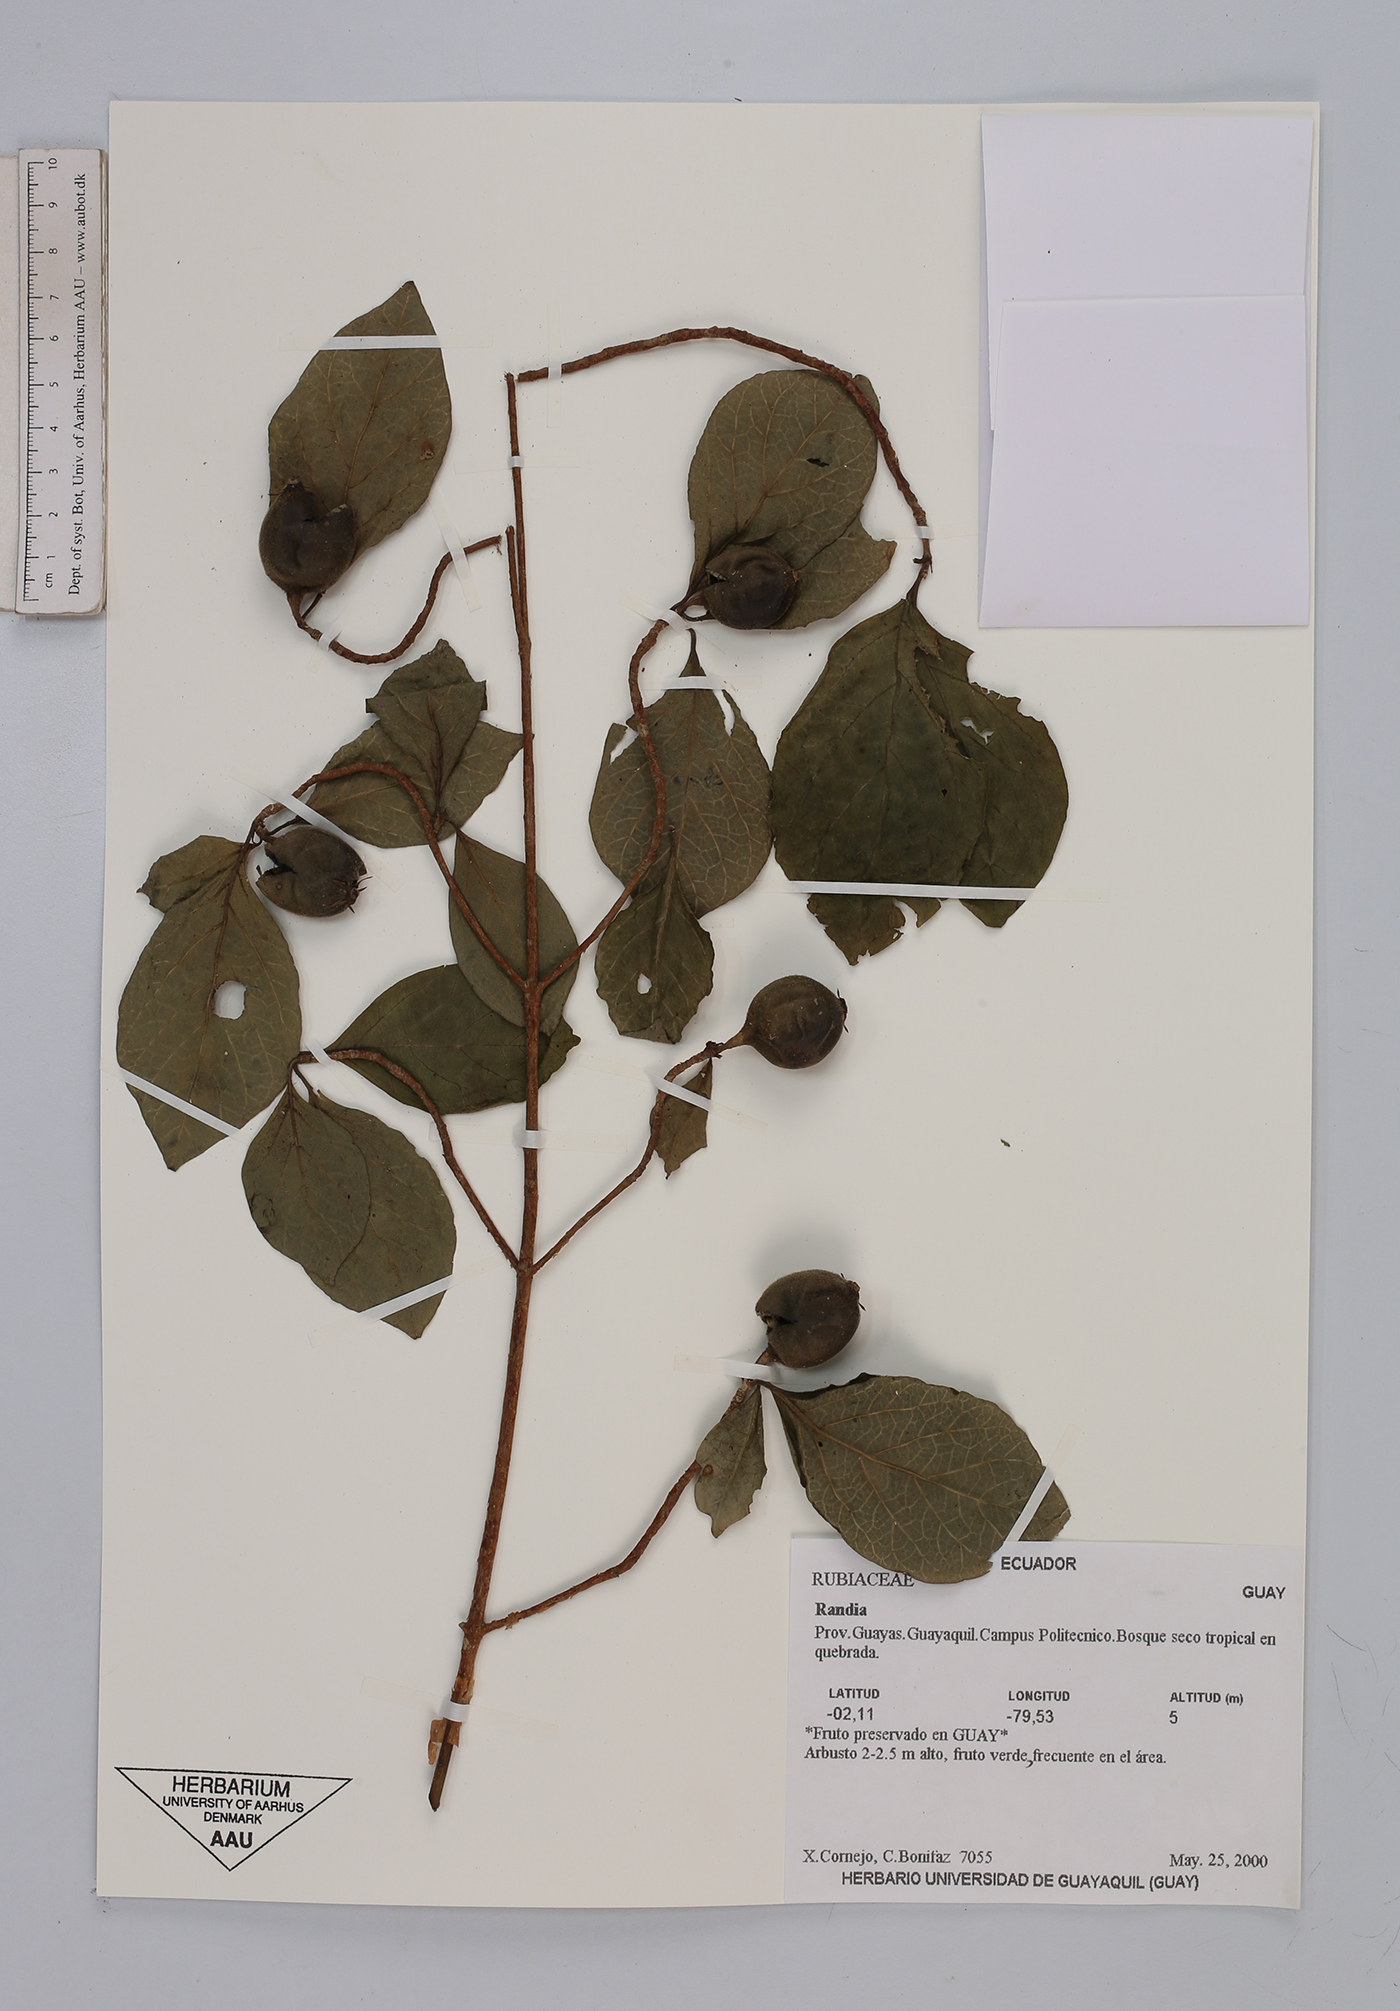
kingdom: Plantae
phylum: Tracheophyta
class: Magnoliopsida
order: Gentianales
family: Rubiaceae
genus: Randia
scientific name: Randia
